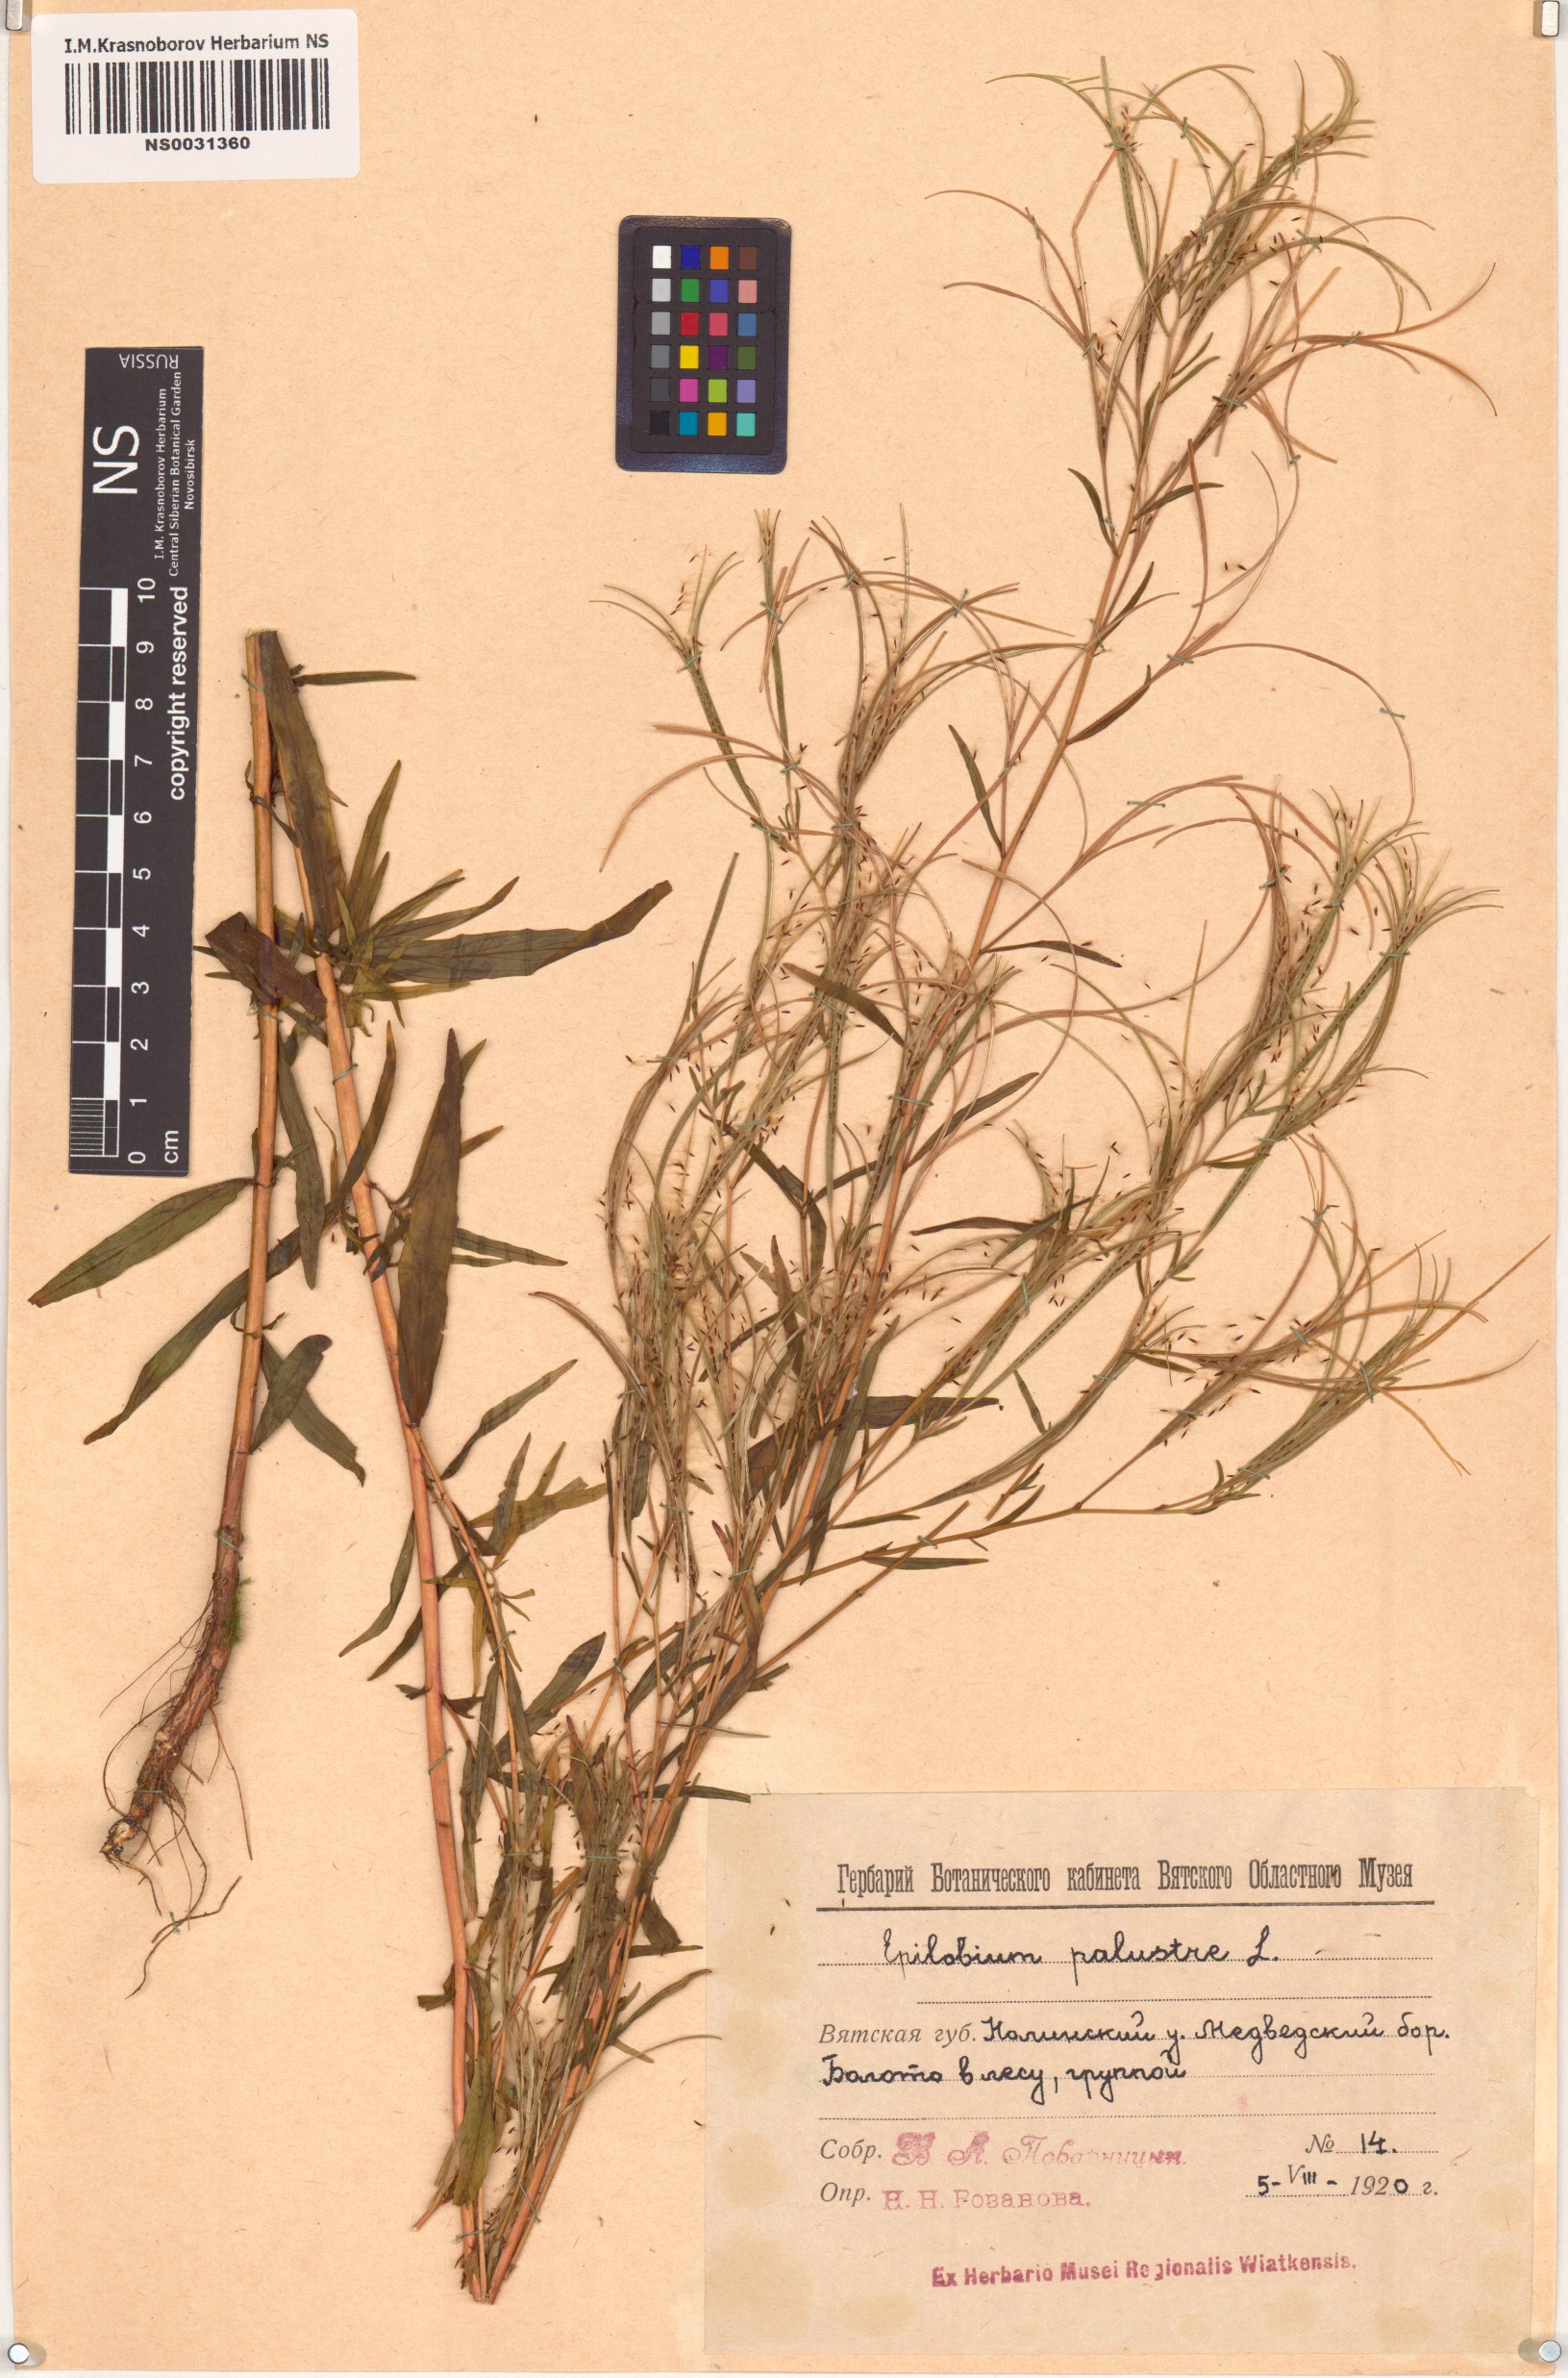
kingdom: Plantae
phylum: Tracheophyta
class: Magnoliopsida
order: Myrtales
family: Onagraceae
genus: Epilobium
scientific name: Epilobium palustre
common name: Marsh willowherb
